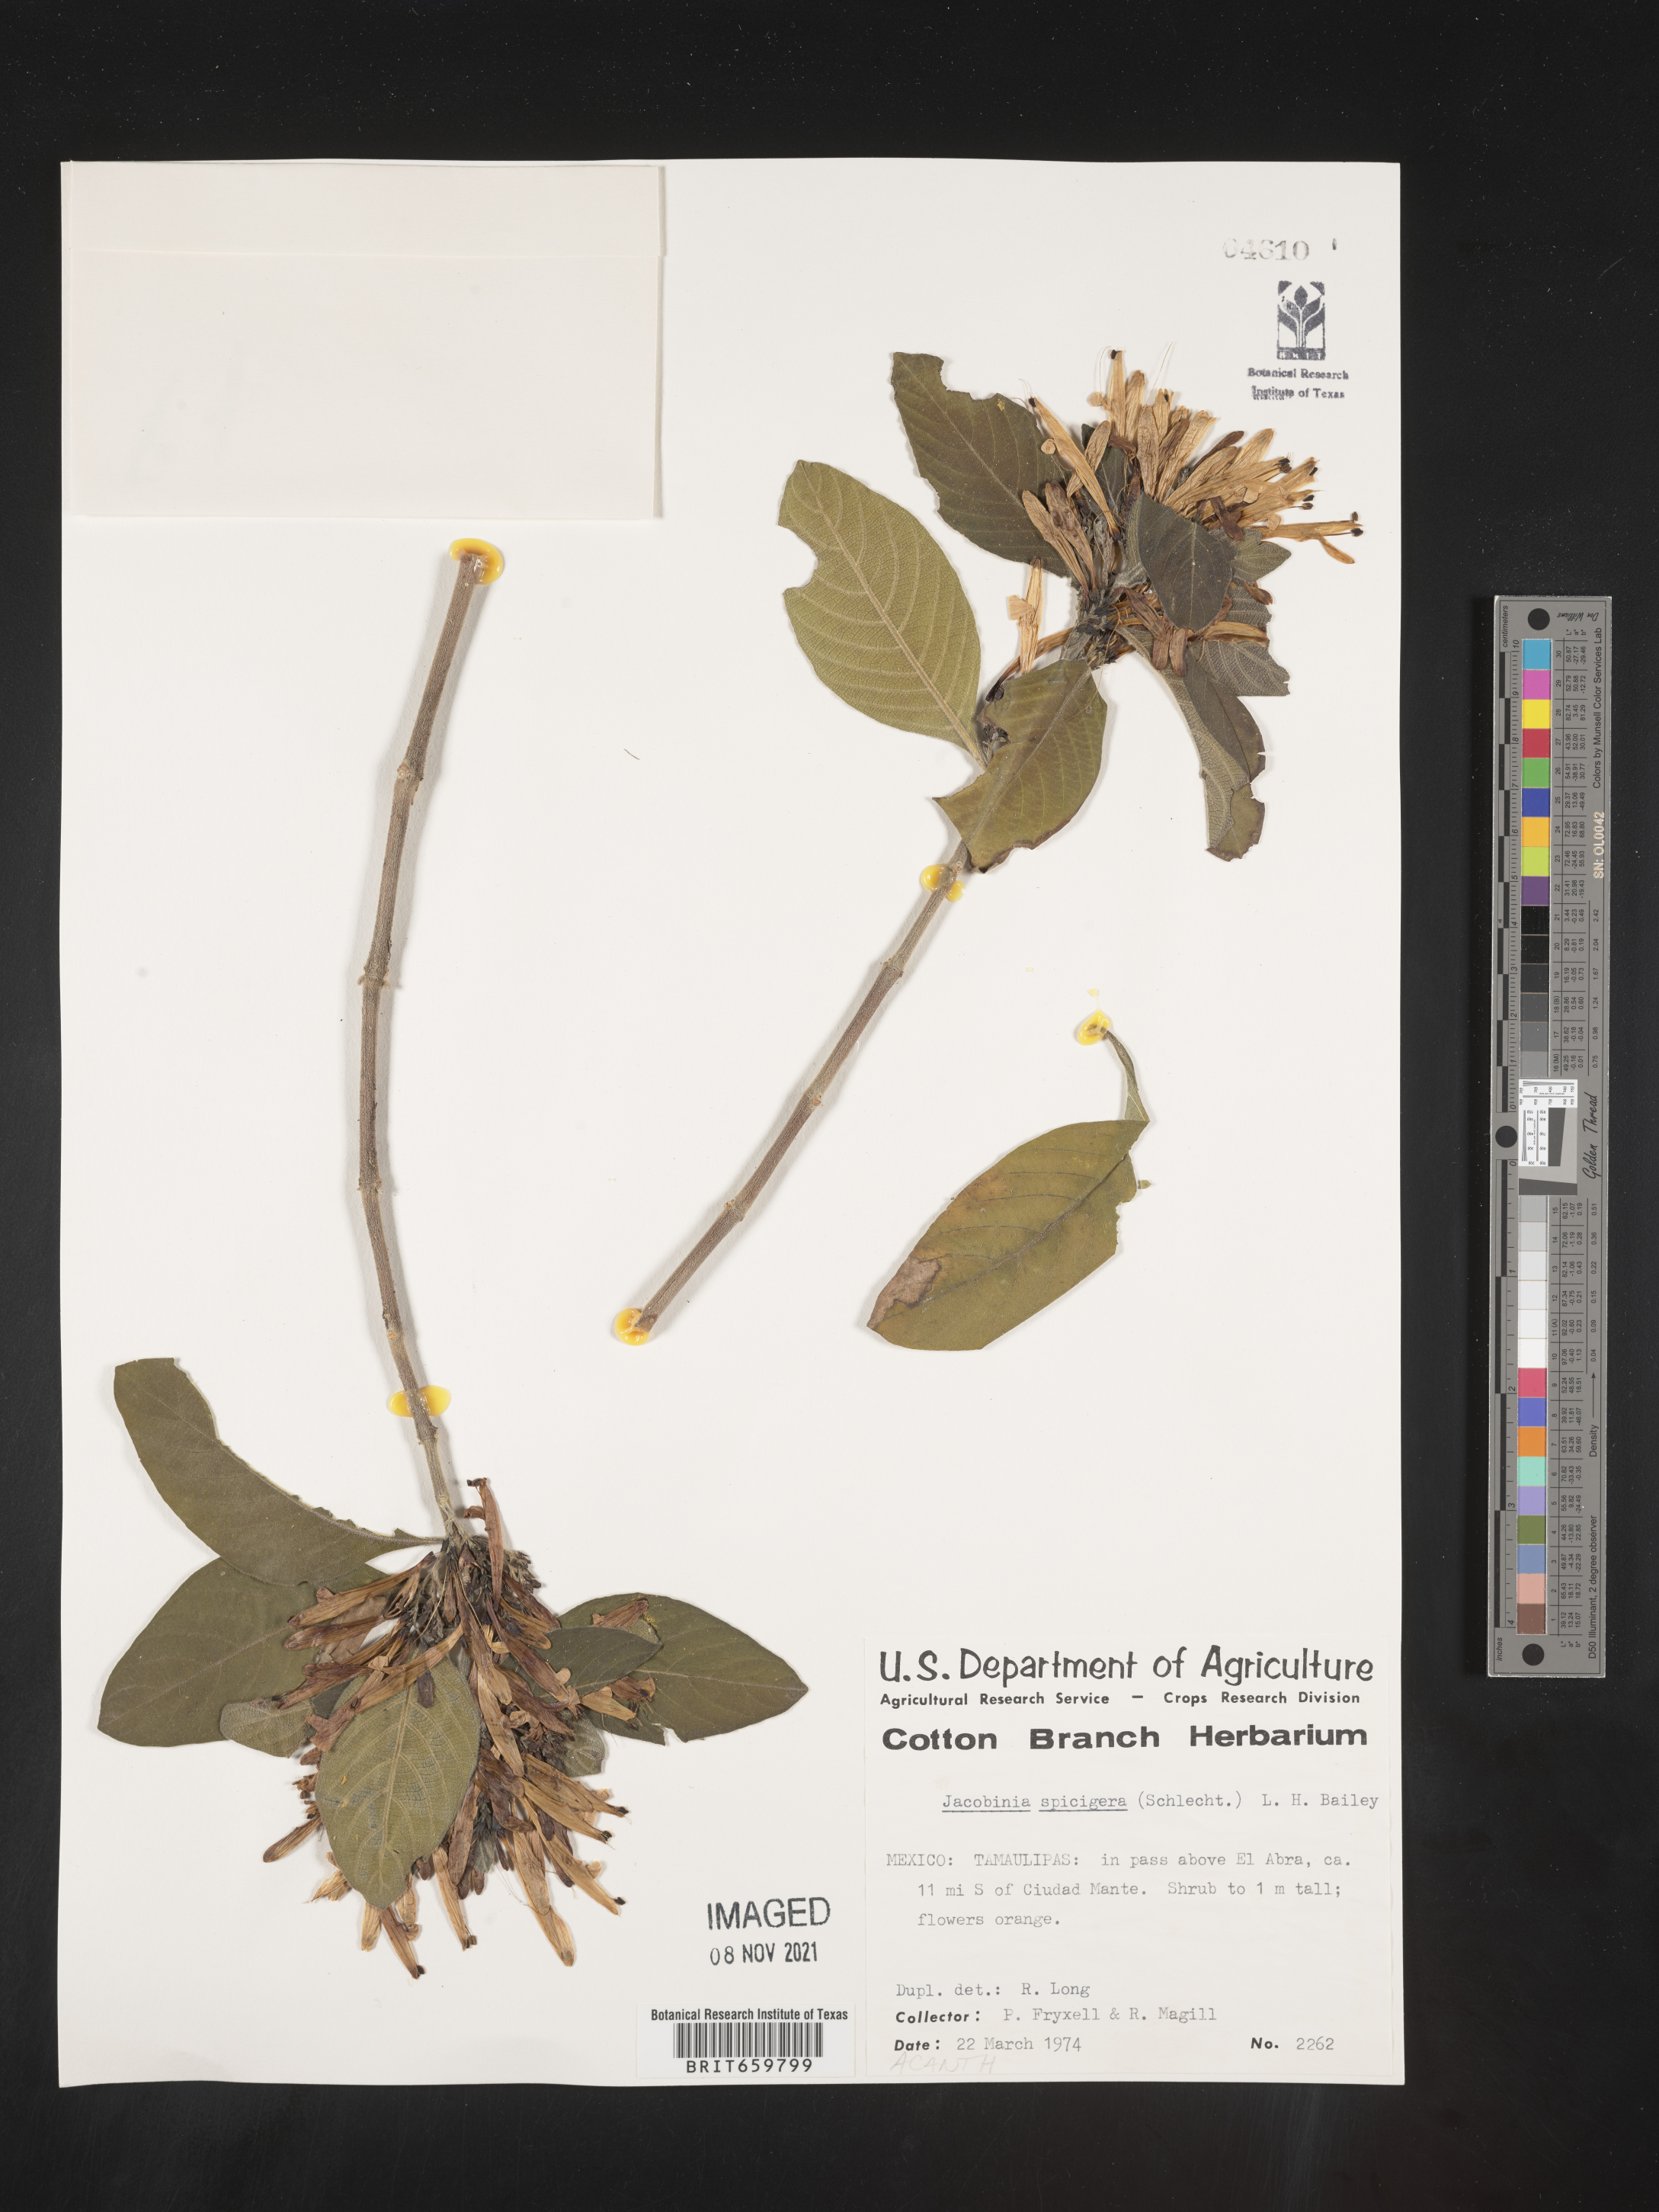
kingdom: Plantae
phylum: Tracheophyta
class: Magnoliopsida
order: Lamiales
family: Acanthaceae
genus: Justicia
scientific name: Justicia
